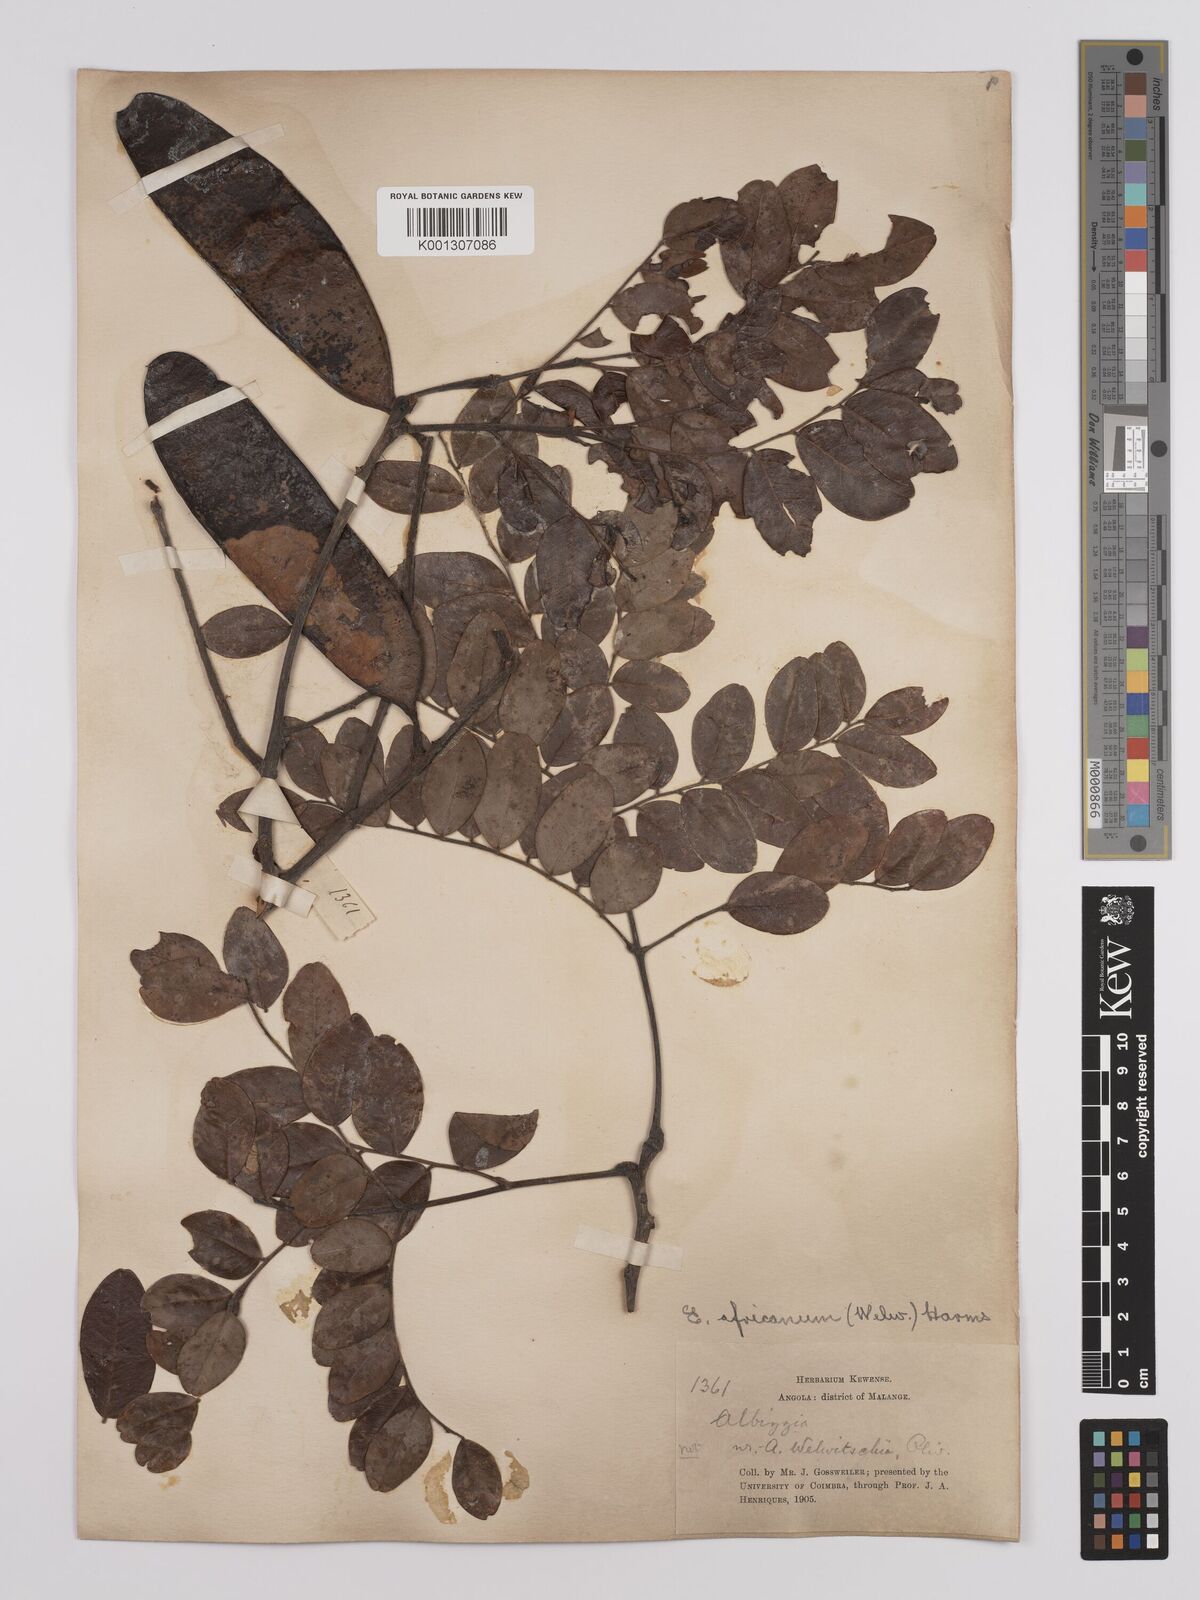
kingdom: Plantae
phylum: Tracheophyta
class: Magnoliopsida
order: Fabales
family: Fabaceae
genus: Erythrophleum
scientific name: Erythrophleum africanum
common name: African blackwood
